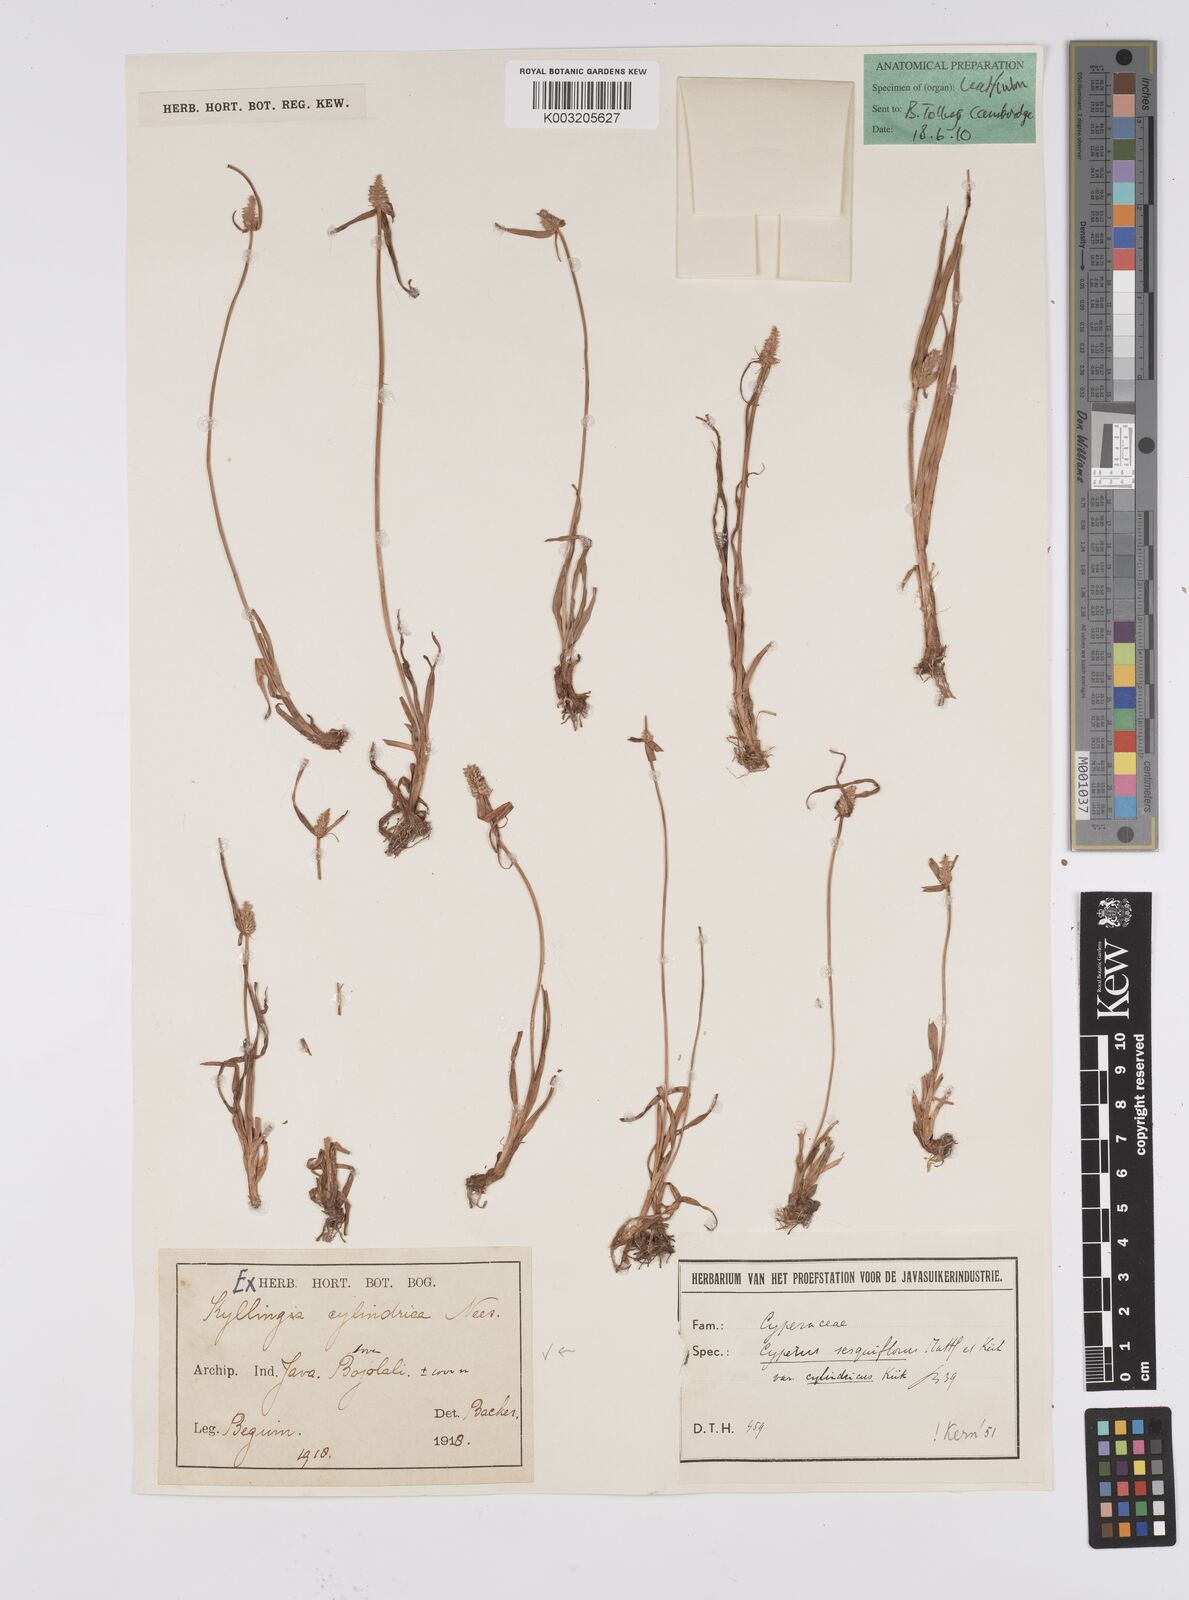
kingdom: Plantae
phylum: Tracheophyta
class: Liliopsida
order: Poales
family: Cyperaceae
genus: Cyperus
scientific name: Cyperus
